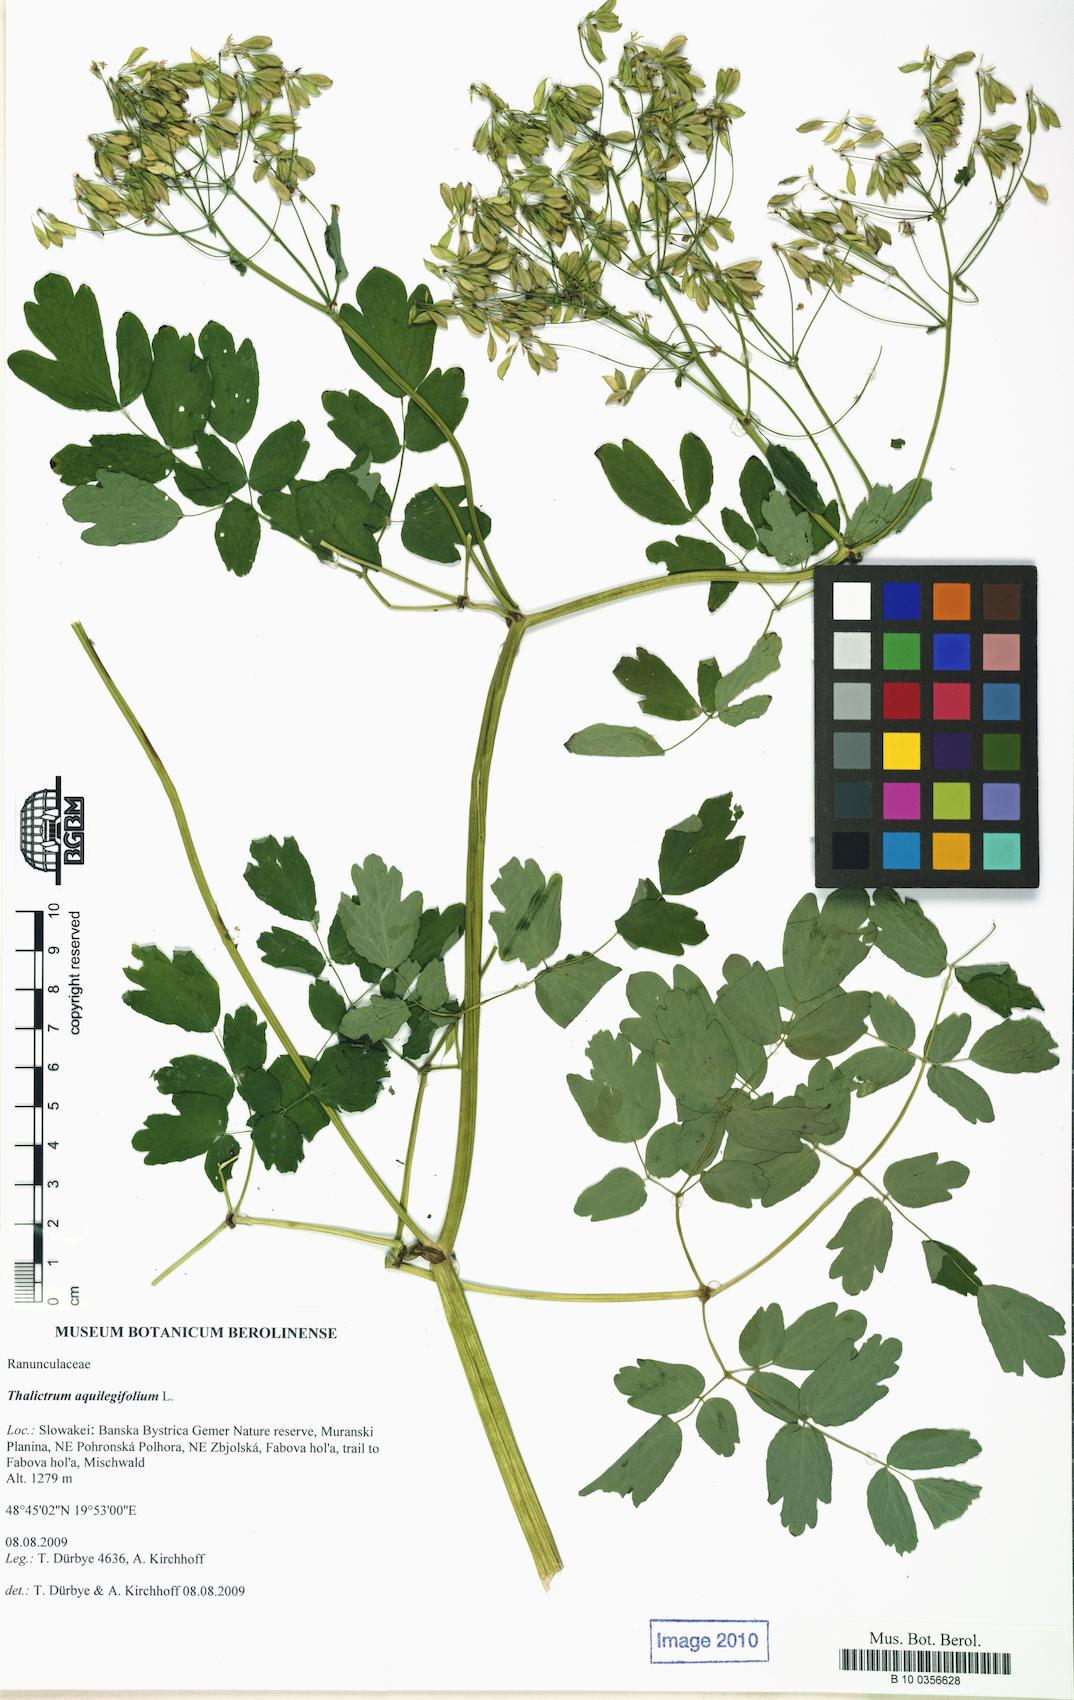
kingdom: Plantae
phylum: Tracheophyta
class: Magnoliopsida
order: Ranunculales
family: Ranunculaceae
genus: Thalictrum
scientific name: Thalictrum aquilegiifolium
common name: French meadow-rue
